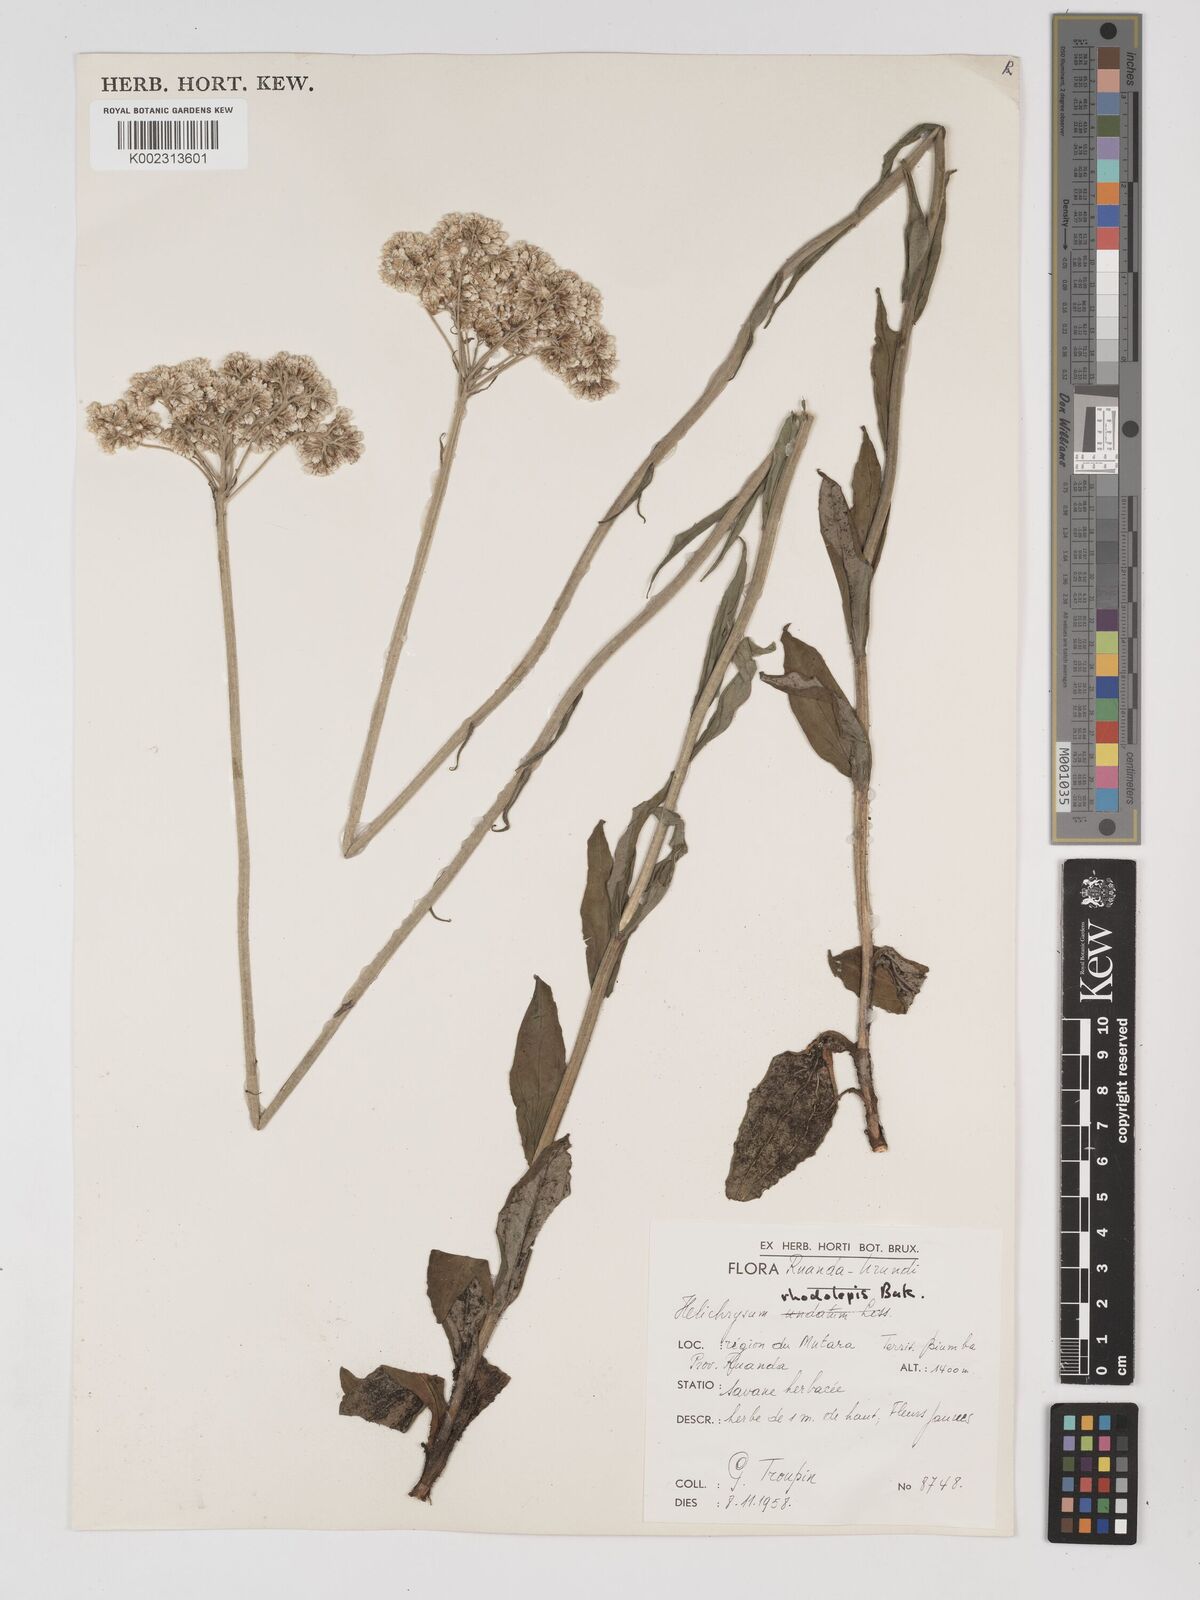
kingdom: Plantae
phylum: Tracheophyta
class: Magnoliopsida
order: Asterales
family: Asteraceae
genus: Helichrysum
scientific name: Helichrysum nudifolium
